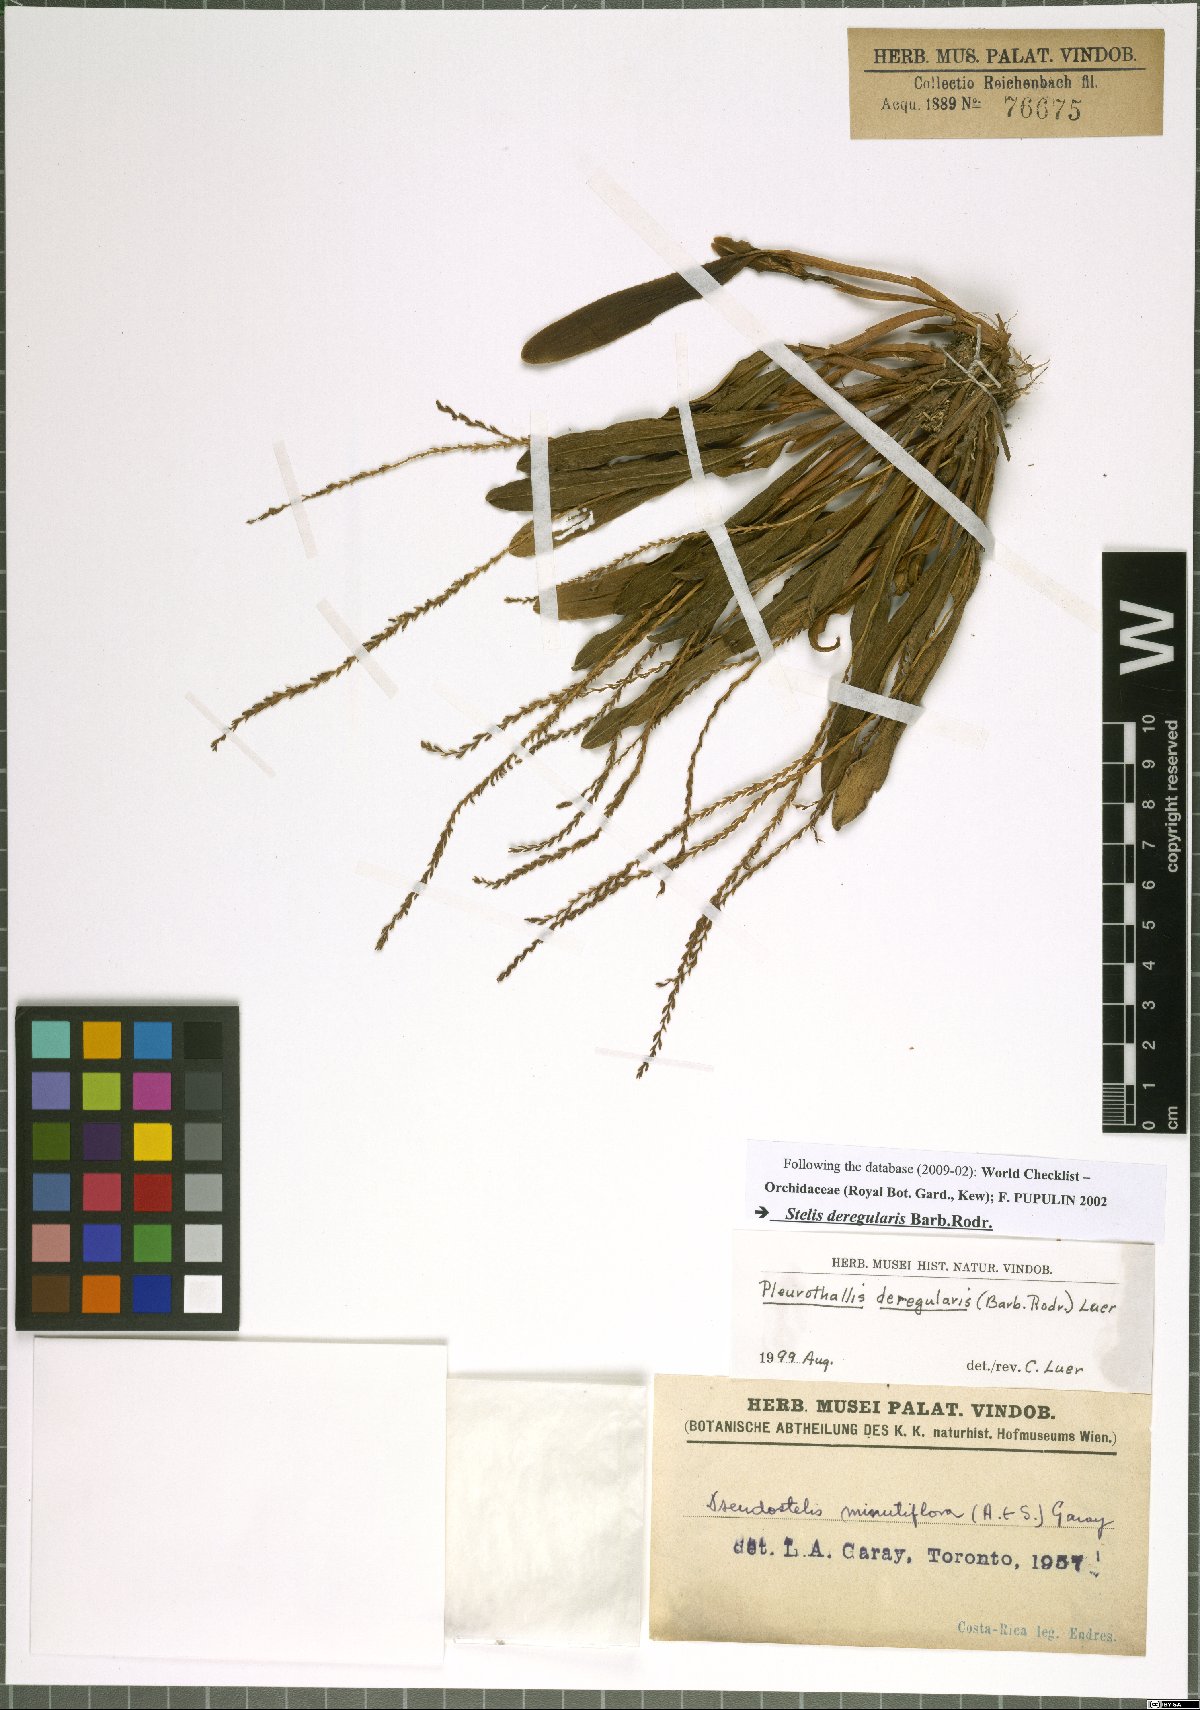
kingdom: Plantae
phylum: Tracheophyta
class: Liliopsida
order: Asparagales
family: Orchidaceae
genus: Stelis
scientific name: Stelis deregularis
